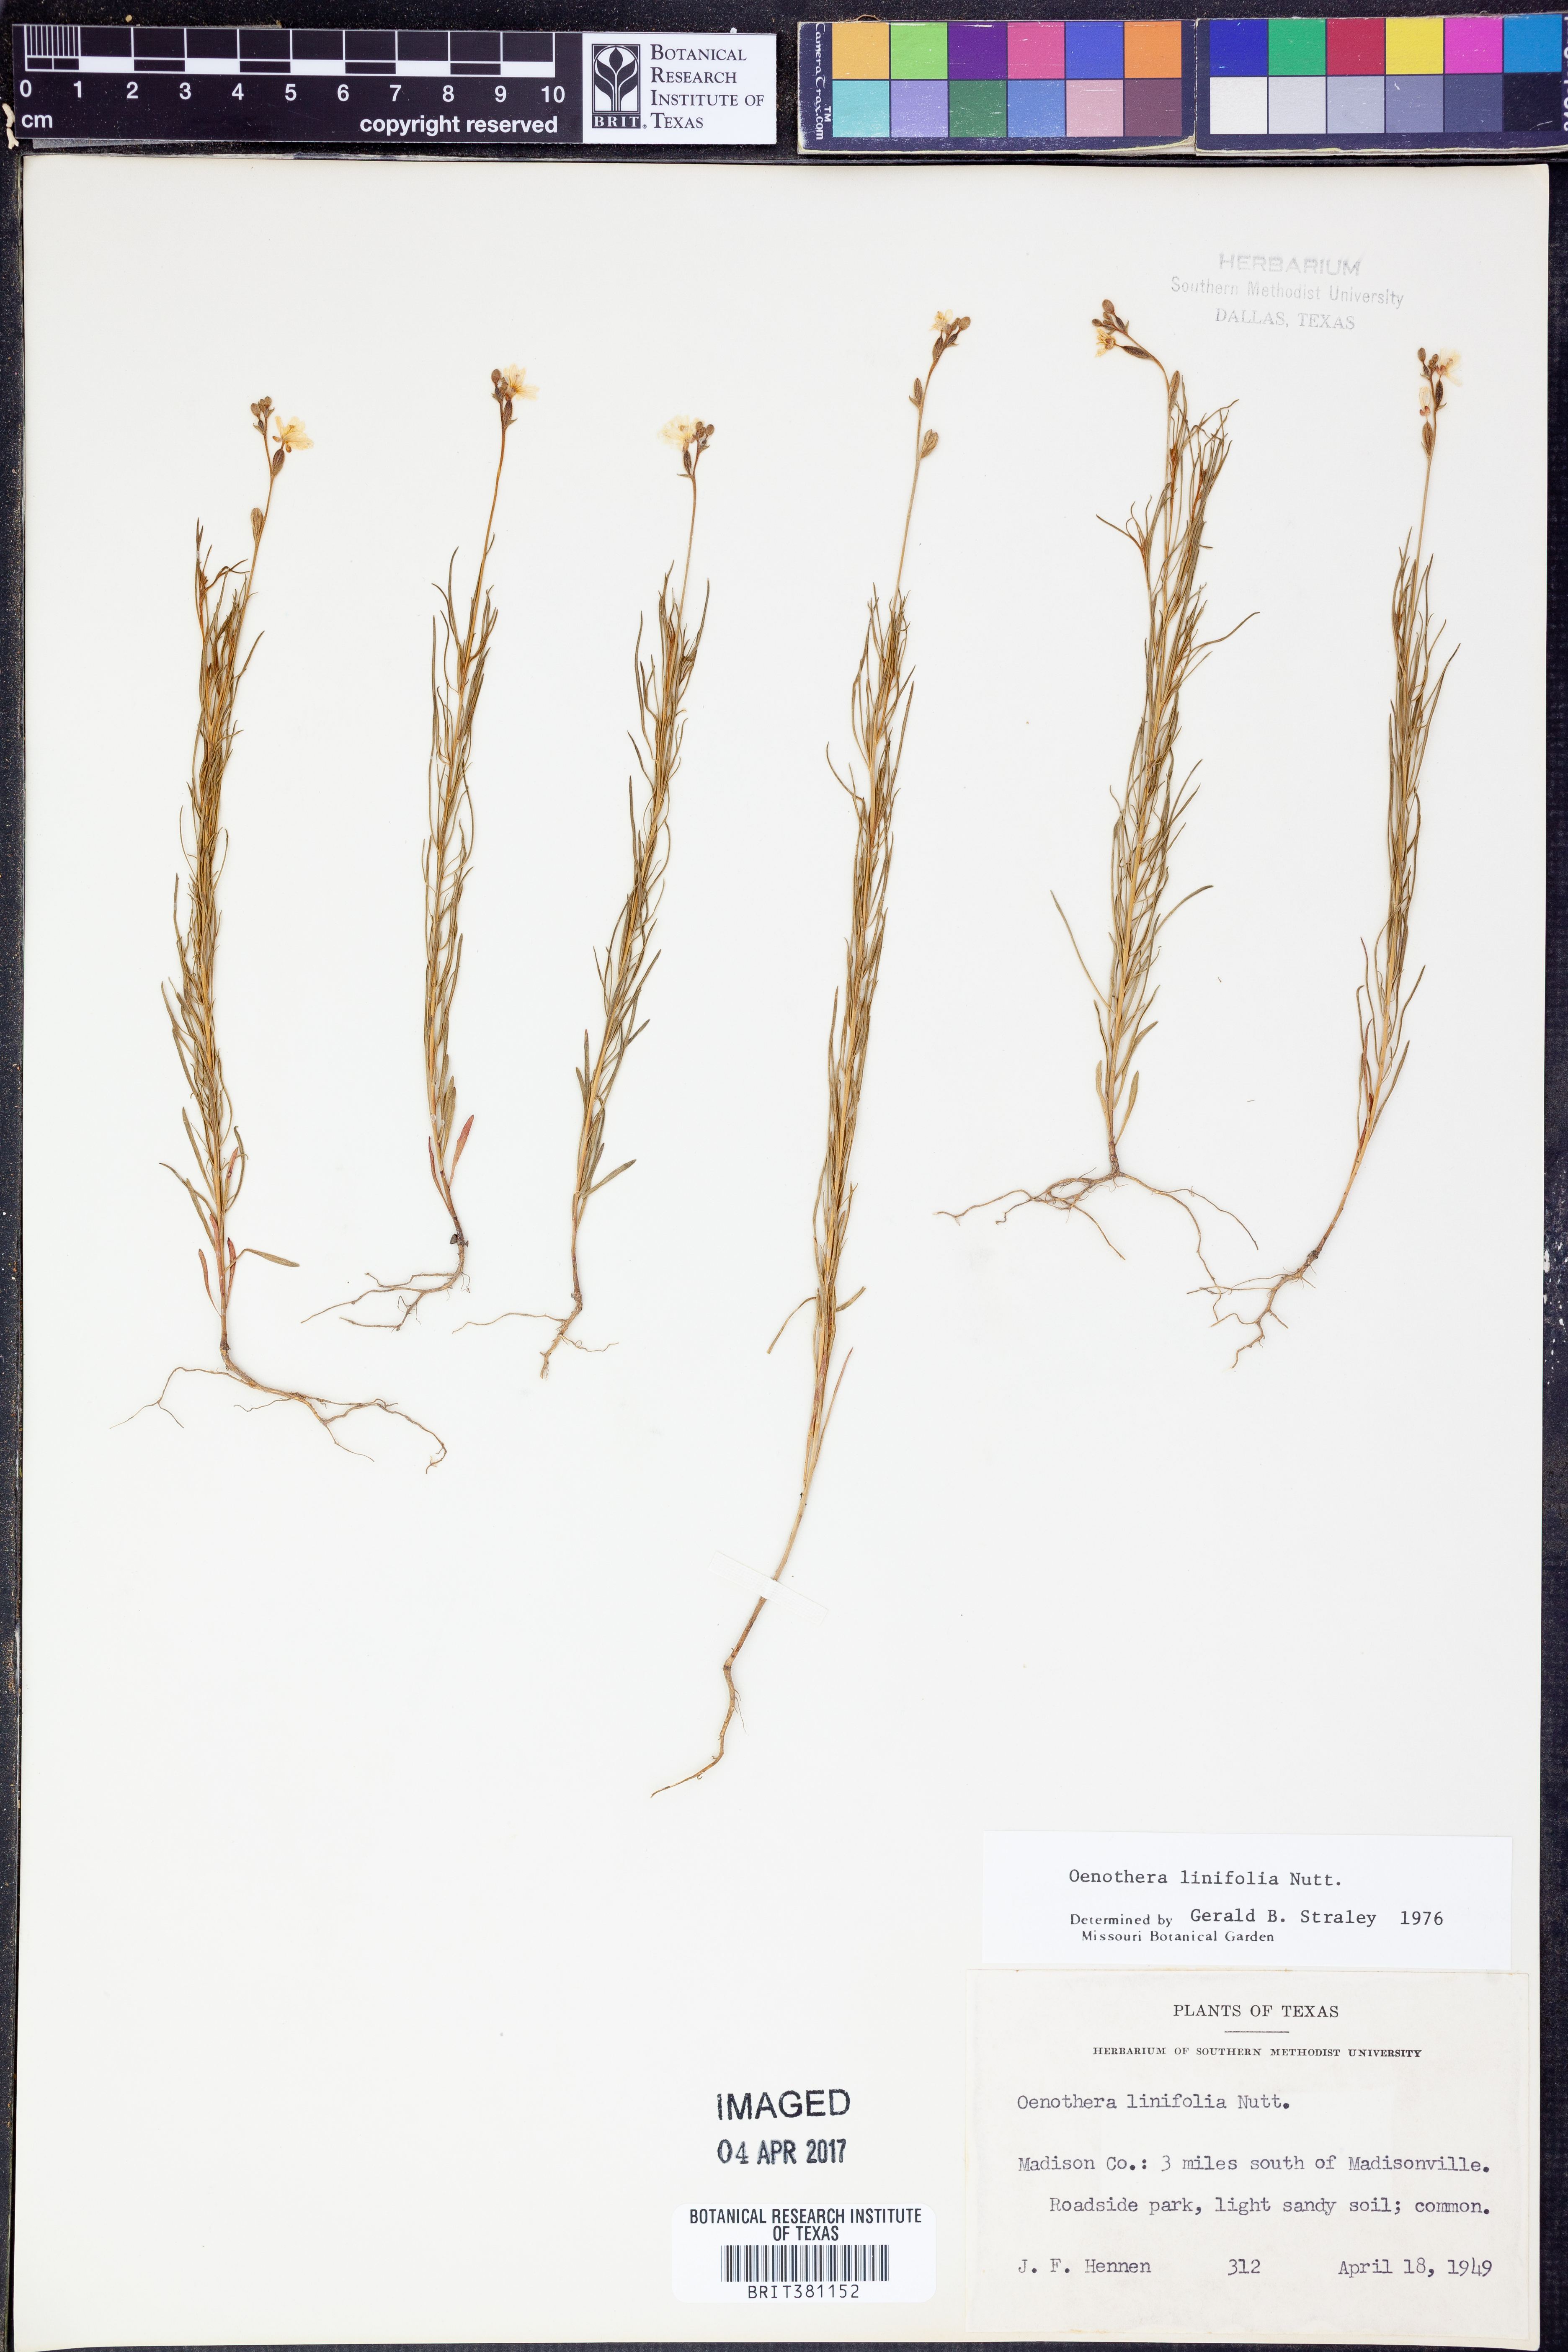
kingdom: Plantae
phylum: Tracheophyta
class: Magnoliopsida
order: Myrtales
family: Onagraceae
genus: Oenothera
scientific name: Oenothera linifolia
